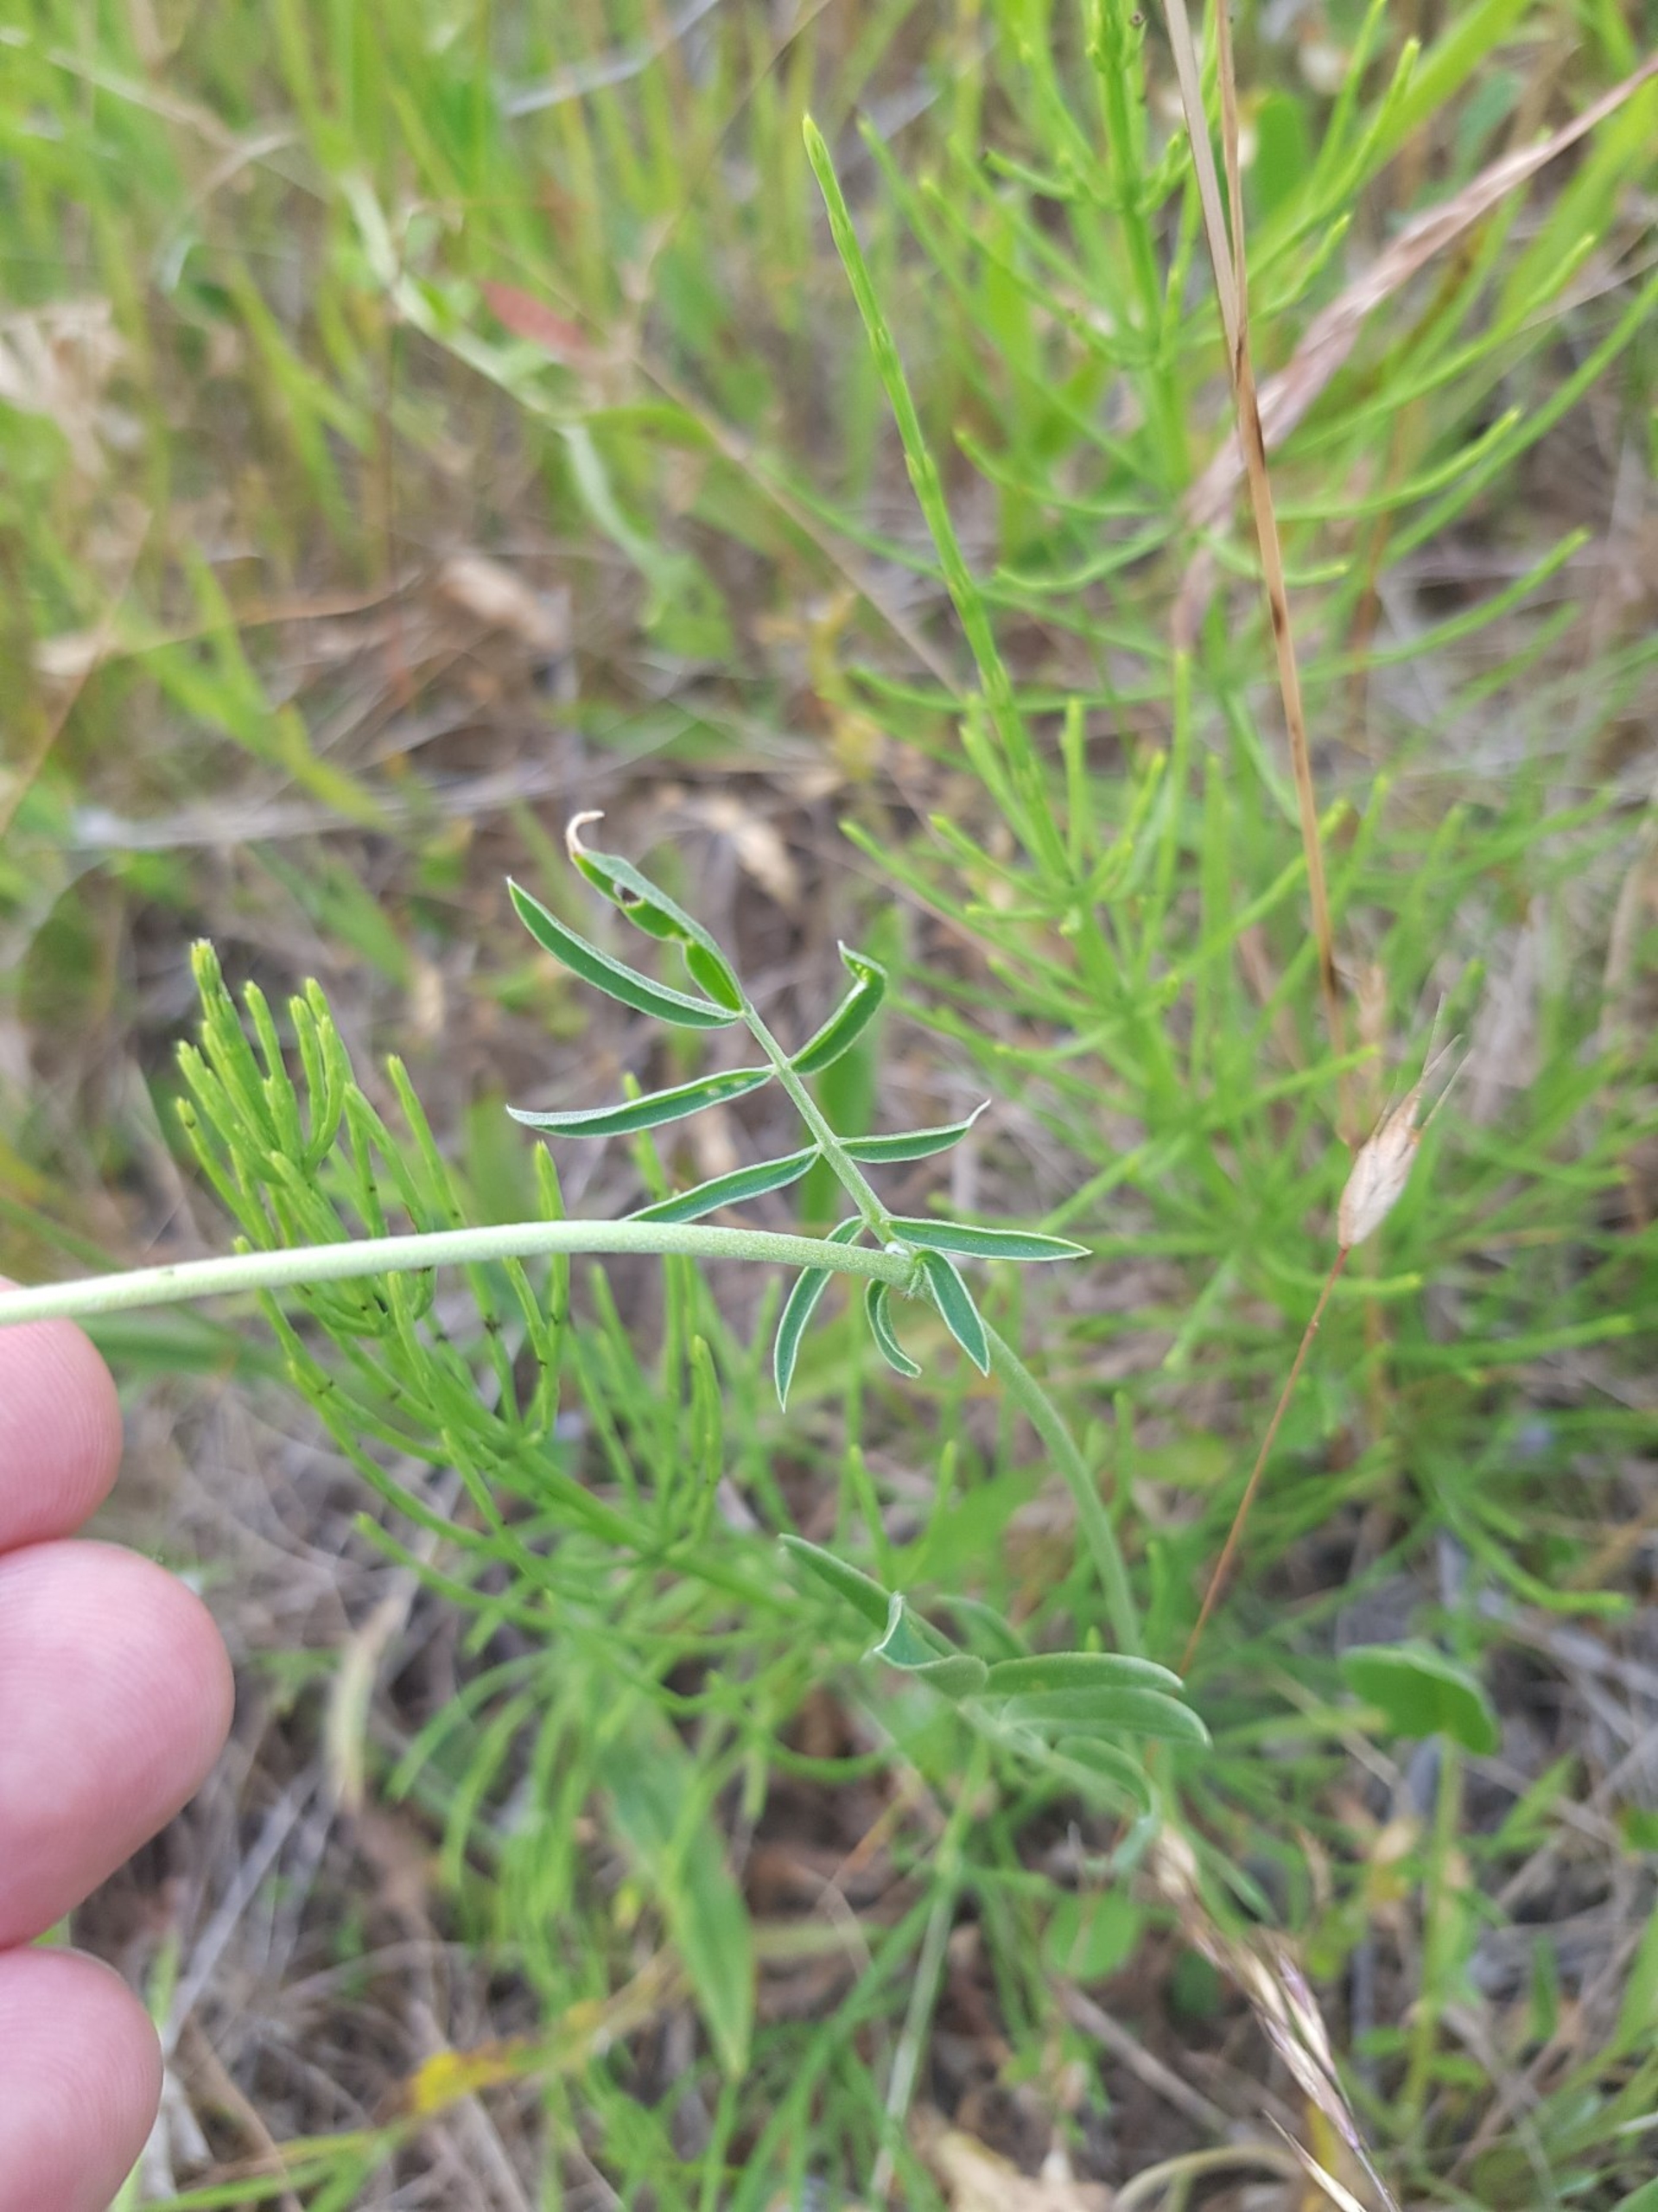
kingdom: Plantae
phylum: Tracheophyta
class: Magnoliopsida
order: Fabales
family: Fabaceae
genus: Anthyllis
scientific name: Anthyllis vulneraria
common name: Rundbælg
